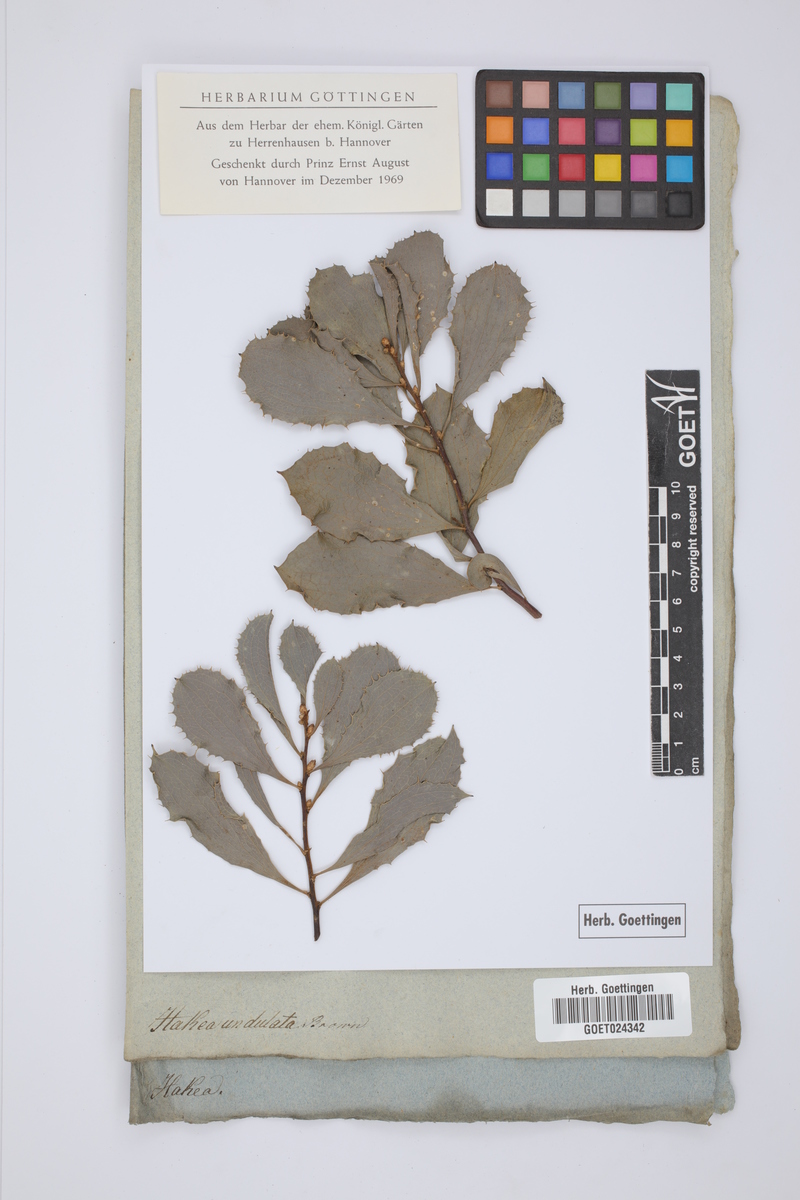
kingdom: Plantae
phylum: Tracheophyta
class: Magnoliopsida
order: Proteales
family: Proteaceae
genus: Hakea
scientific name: Hakea undulata
